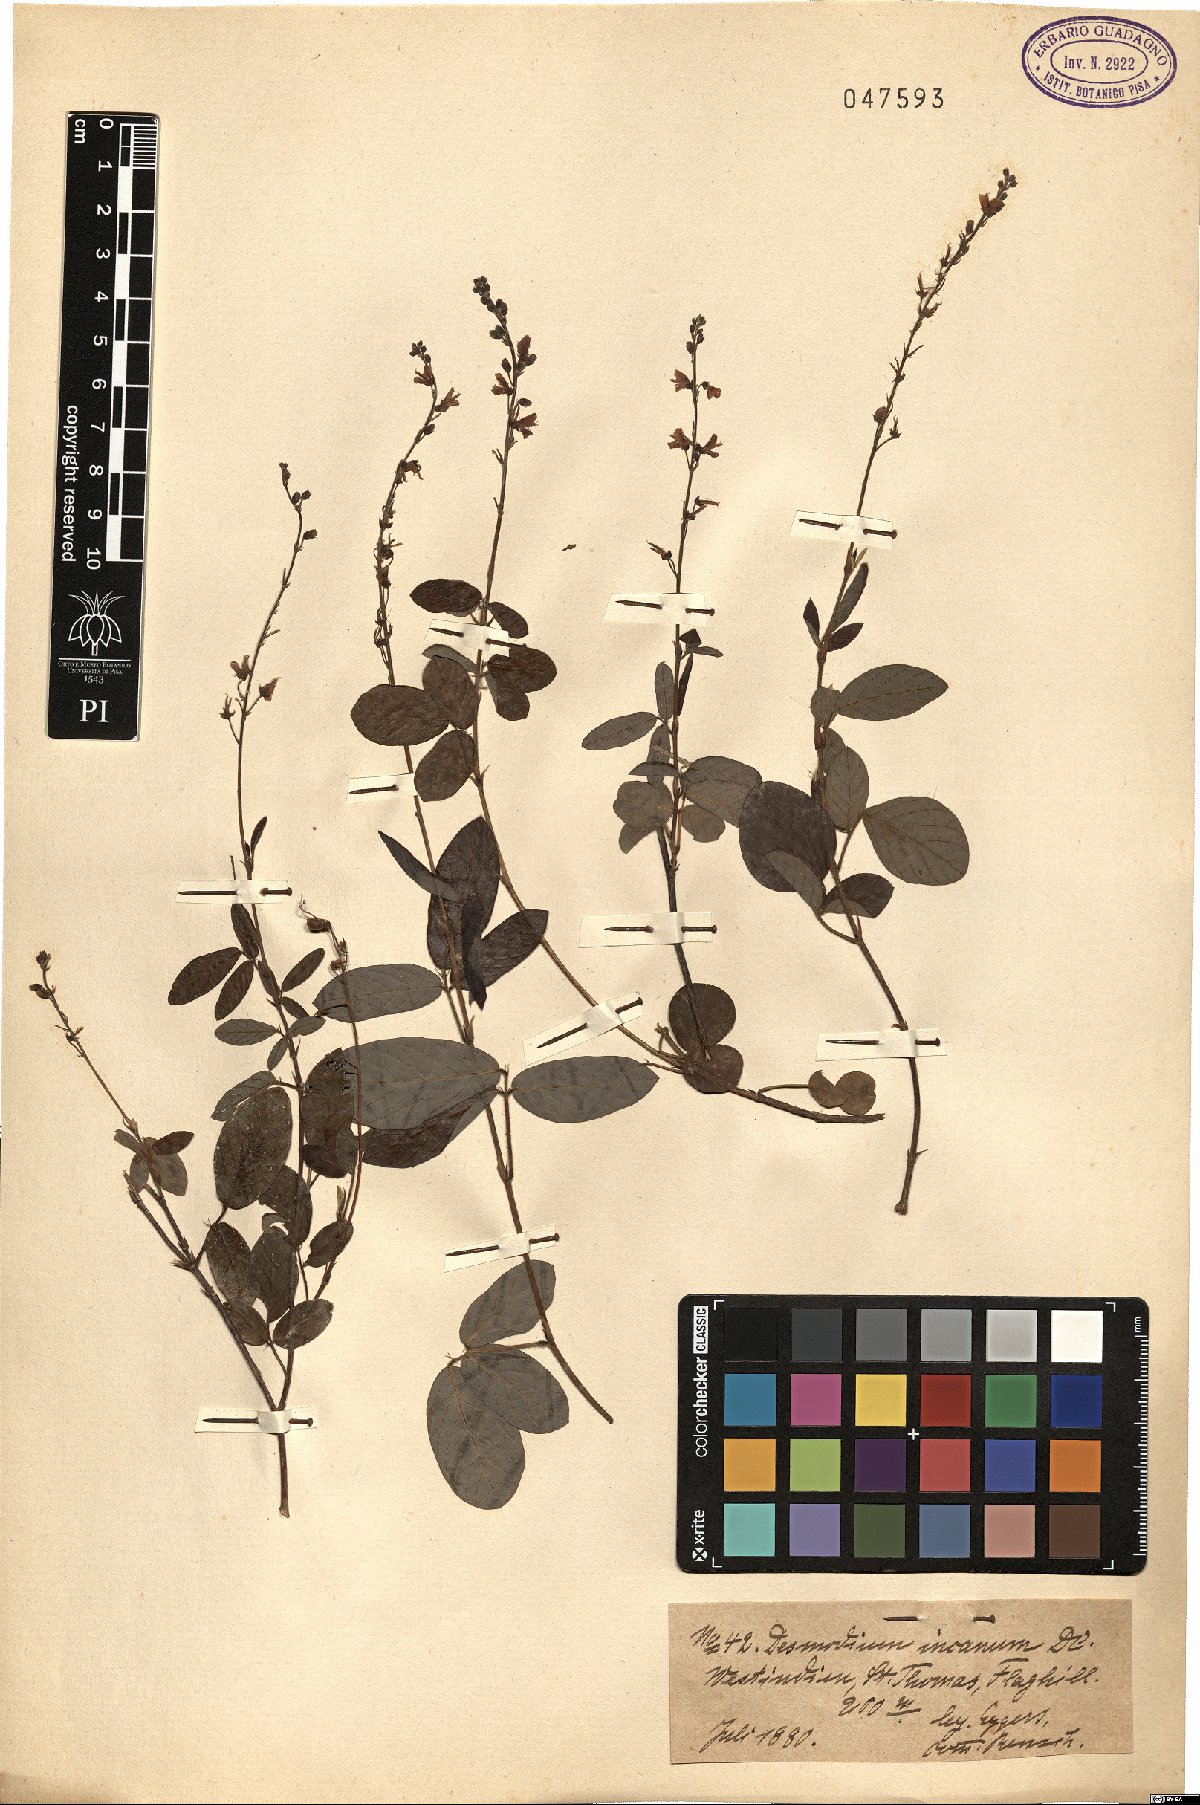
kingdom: Plantae
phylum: Tracheophyta
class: Magnoliopsida
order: Fabales
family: Fabaceae
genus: Desmodium
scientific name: Desmodium incanum
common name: Tickclover
